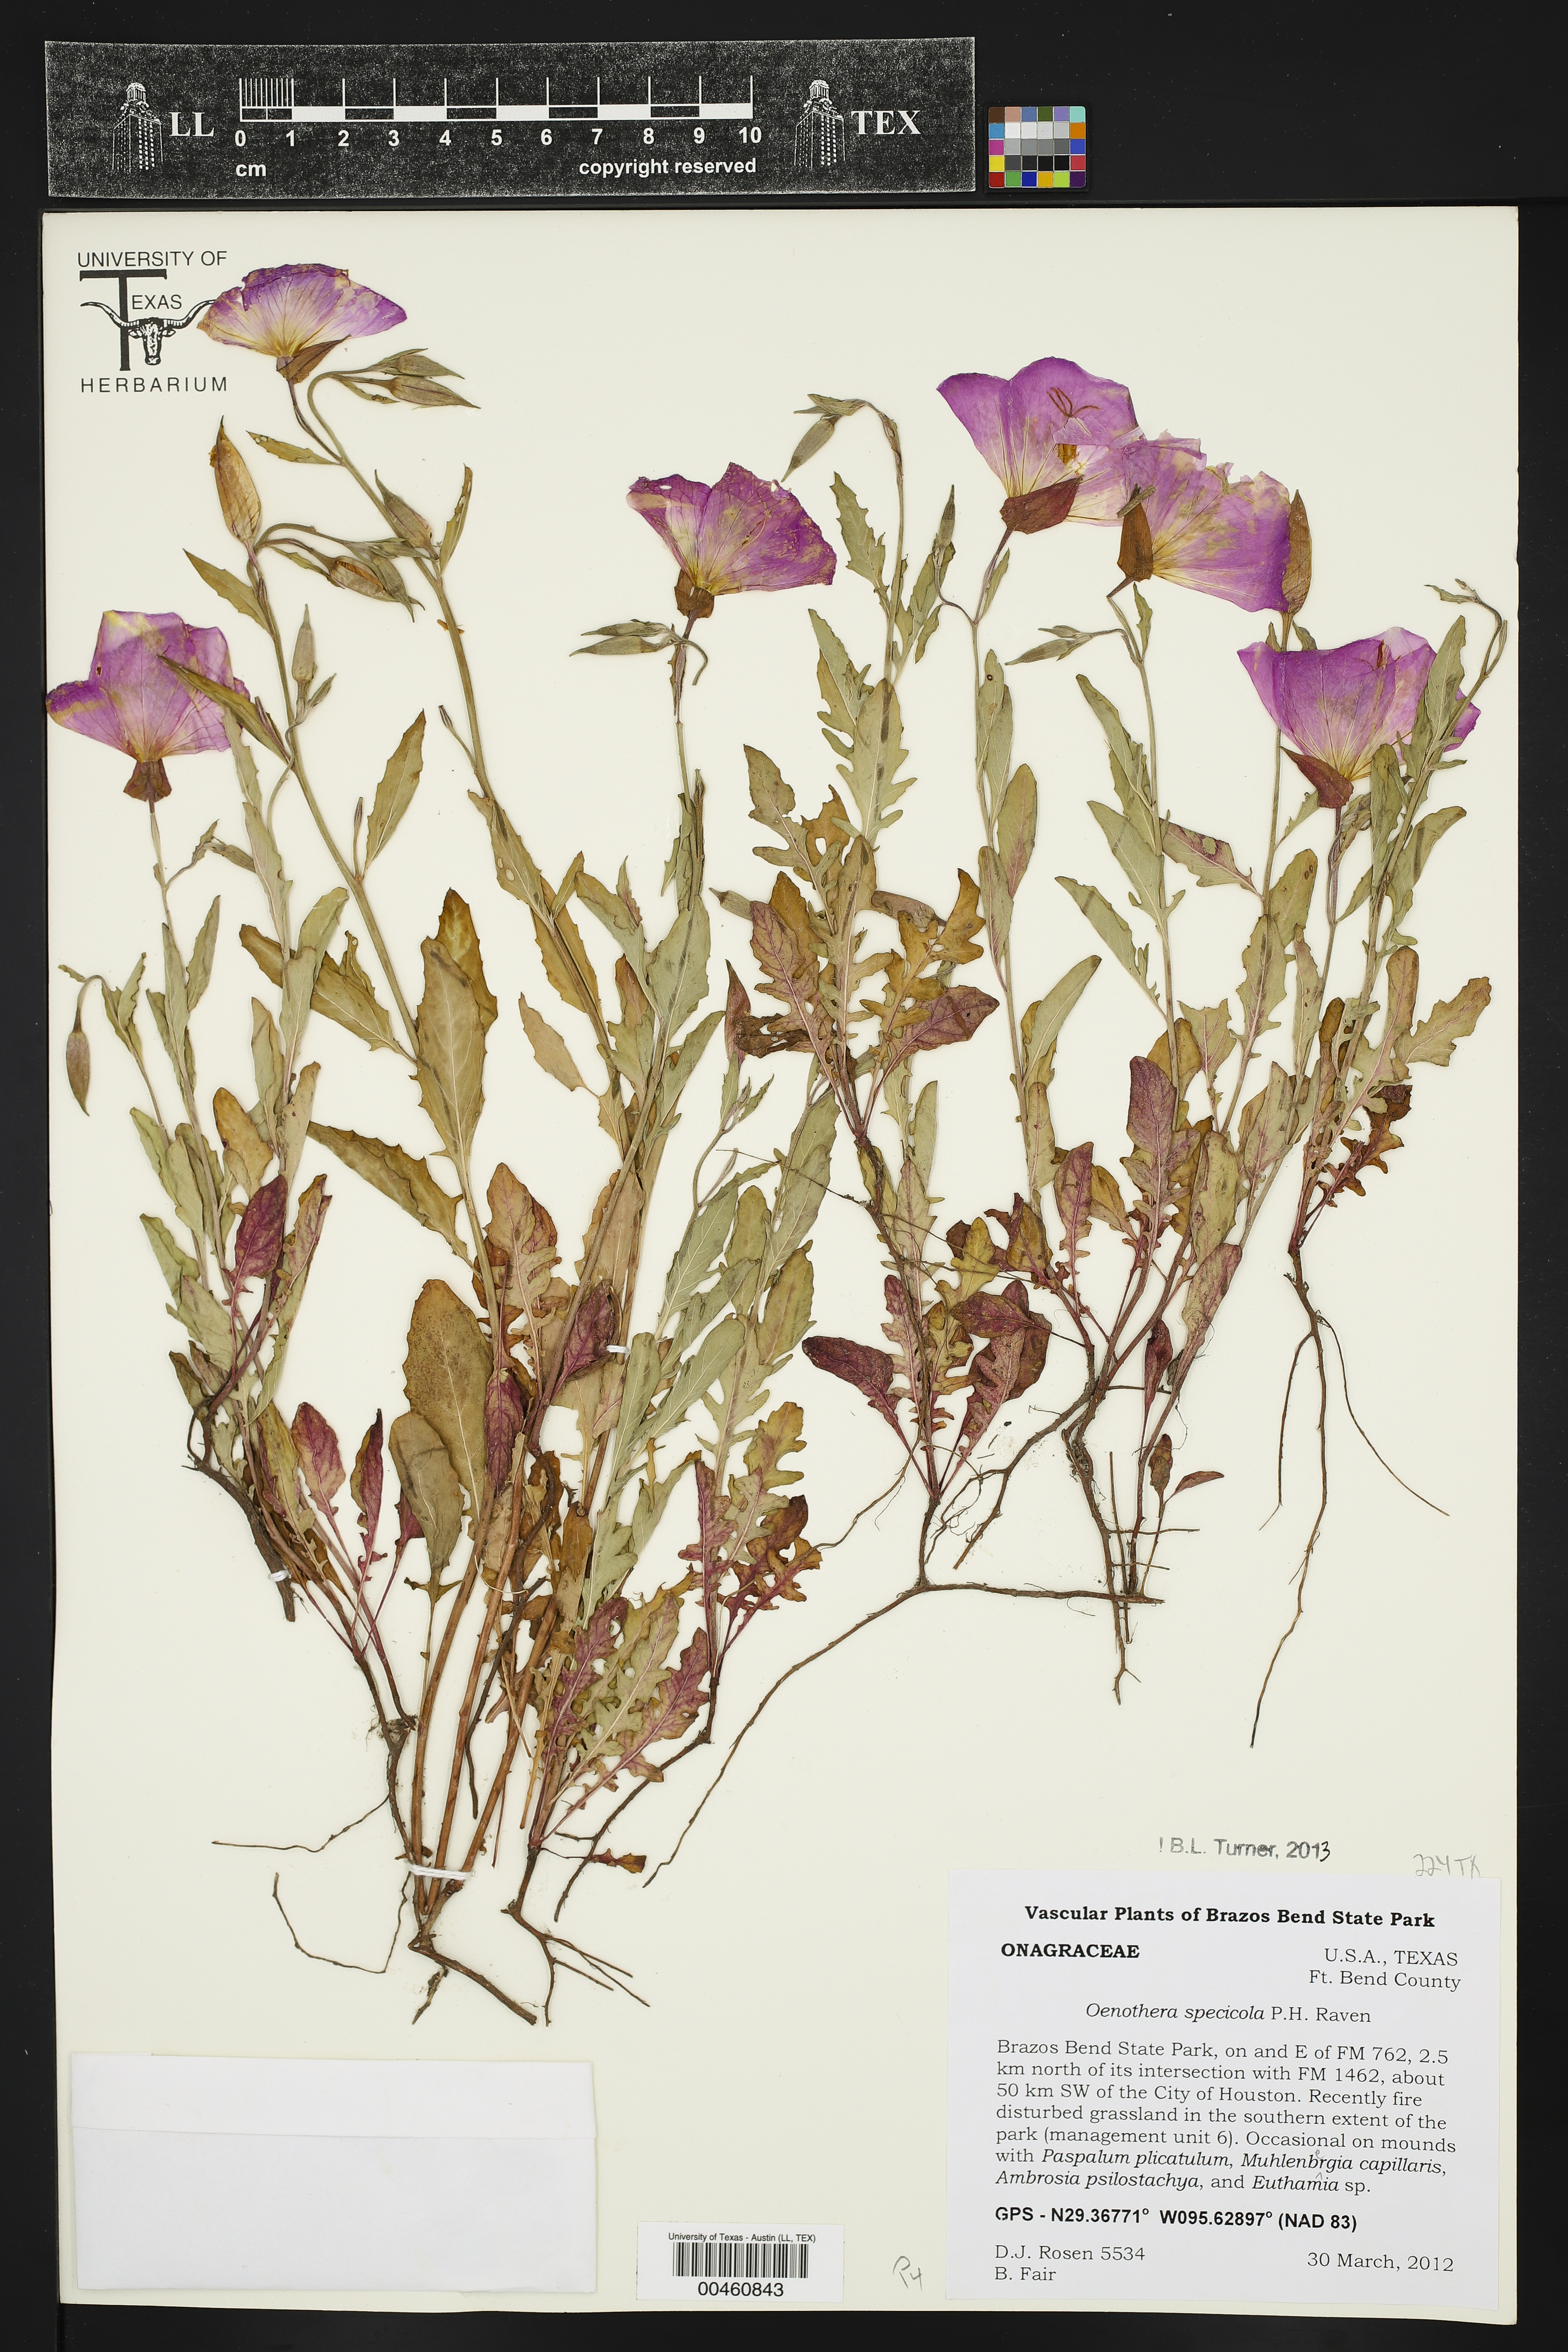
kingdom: Plantae
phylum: Tracheophyta
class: Magnoliopsida
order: Myrtales
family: Onagraceae
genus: Oenothera
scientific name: Oenothera speciosa
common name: White evening-primrose
